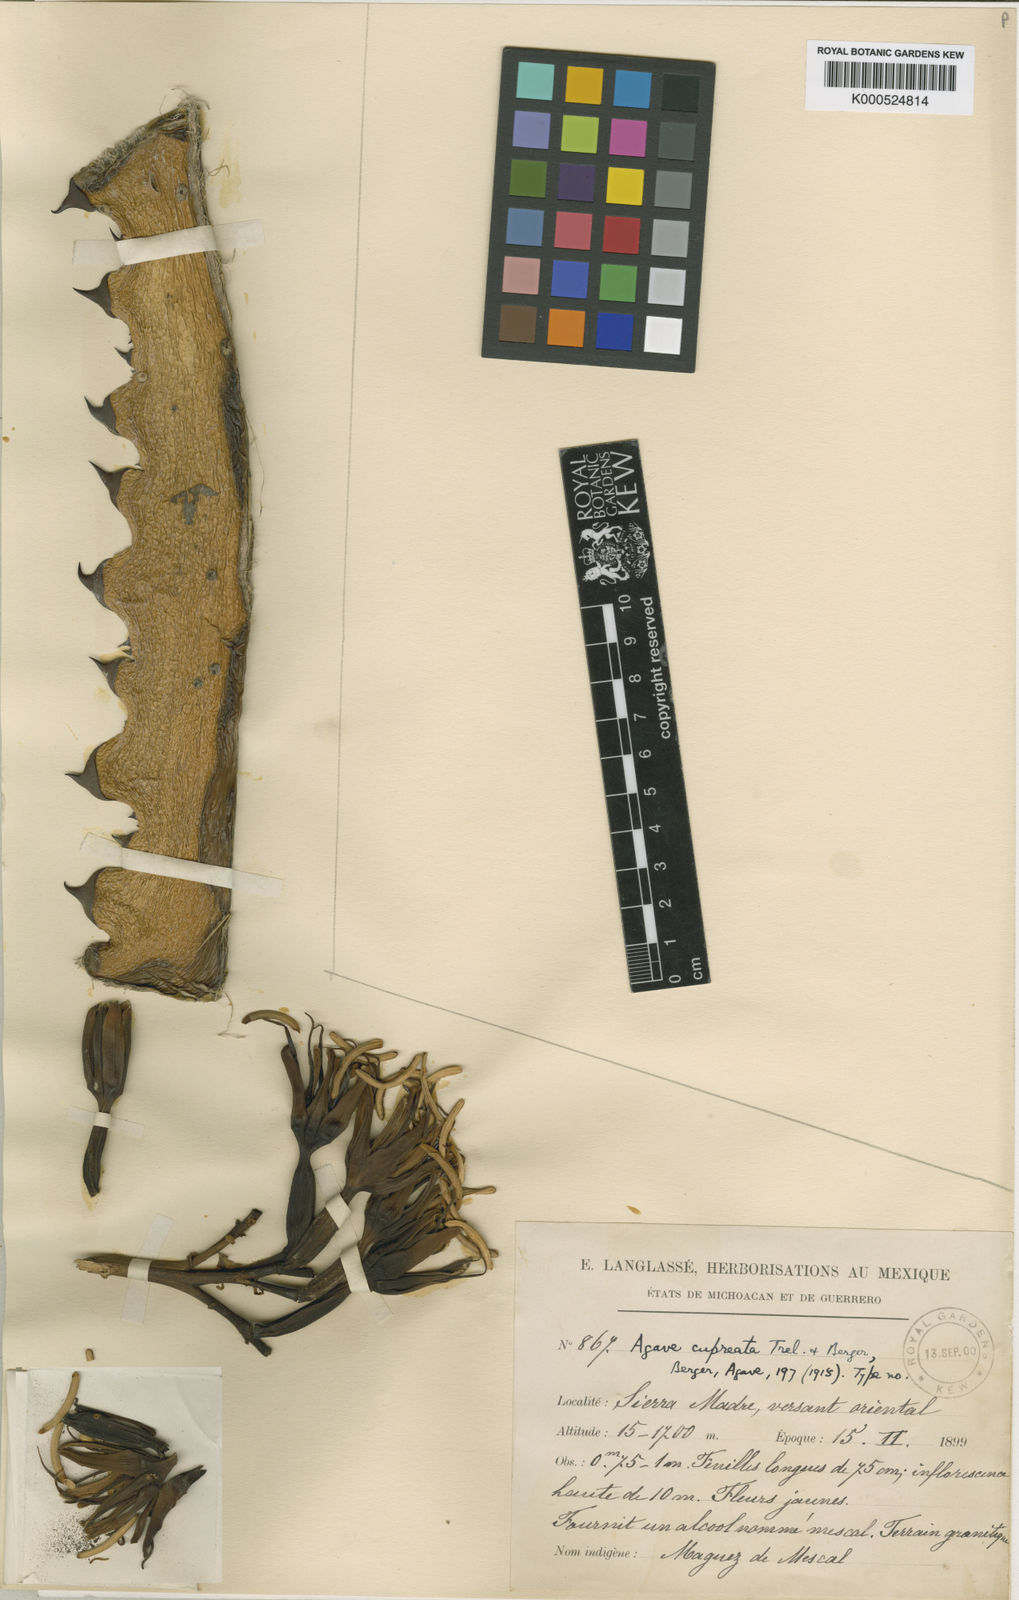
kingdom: Plantae
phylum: Tracheophyta
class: Liliopsida
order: Asparagales
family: Asparagaceae
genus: Agave
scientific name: Agave cupreata
